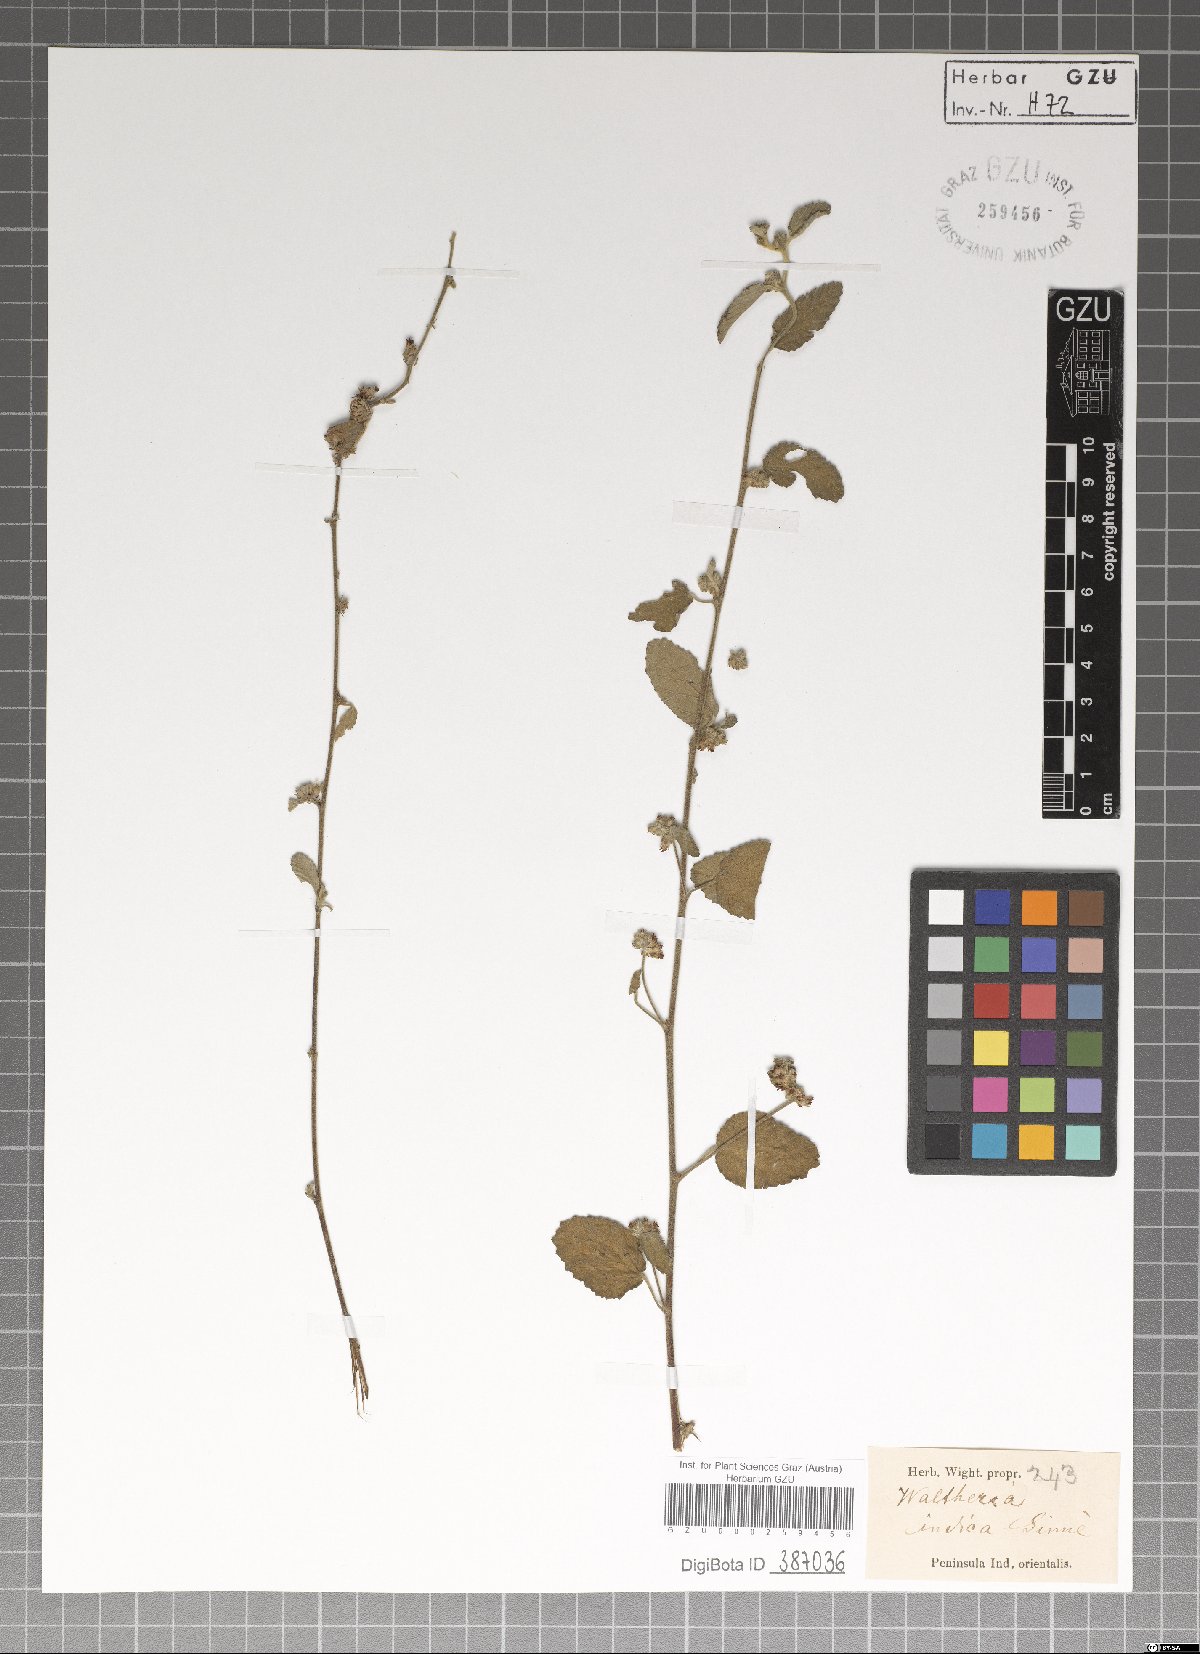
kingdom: Plantae
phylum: Tracheophyta
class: Magnoliopsida
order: Malvales
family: Malvaceae
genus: Waltheria
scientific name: Waltheria indica
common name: Leather-coat
